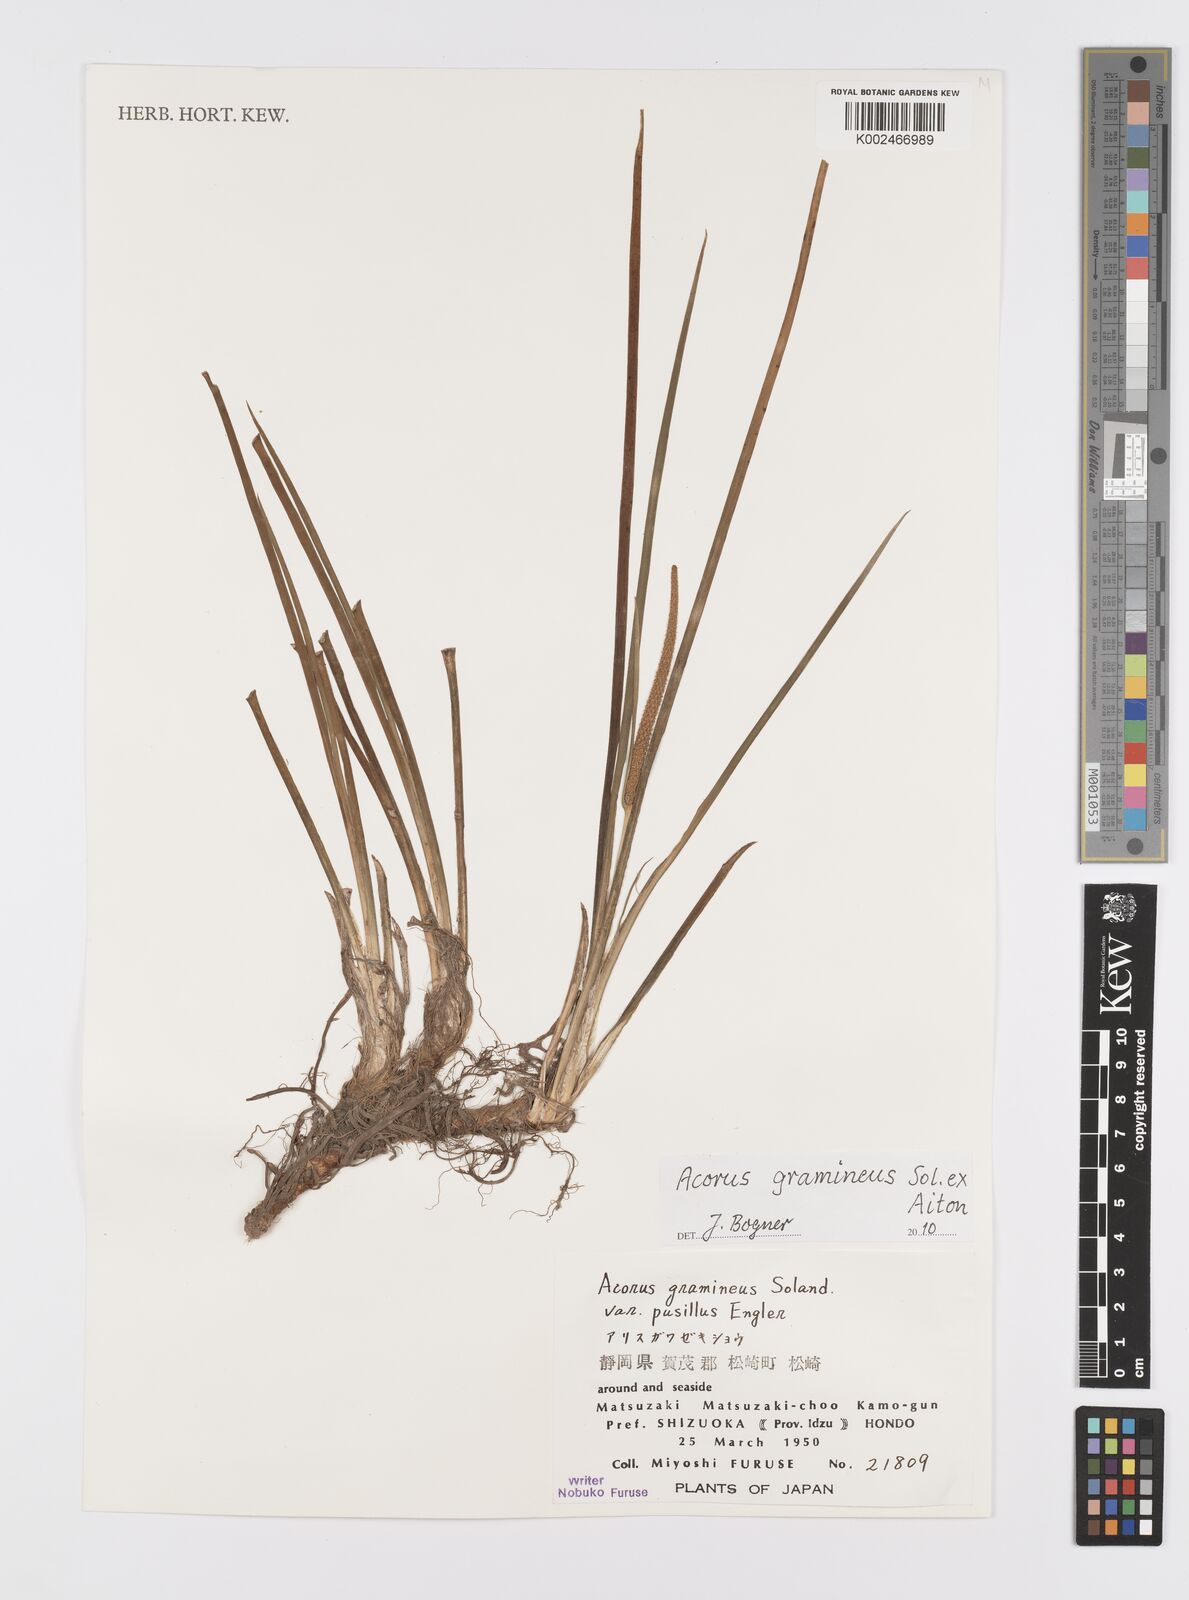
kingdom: Plantae
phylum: Tracheophyta
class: Liliopsida
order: Acorales
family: Acoraceae
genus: Acorus
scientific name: Acorus gramineus
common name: Slender sweet-flag
